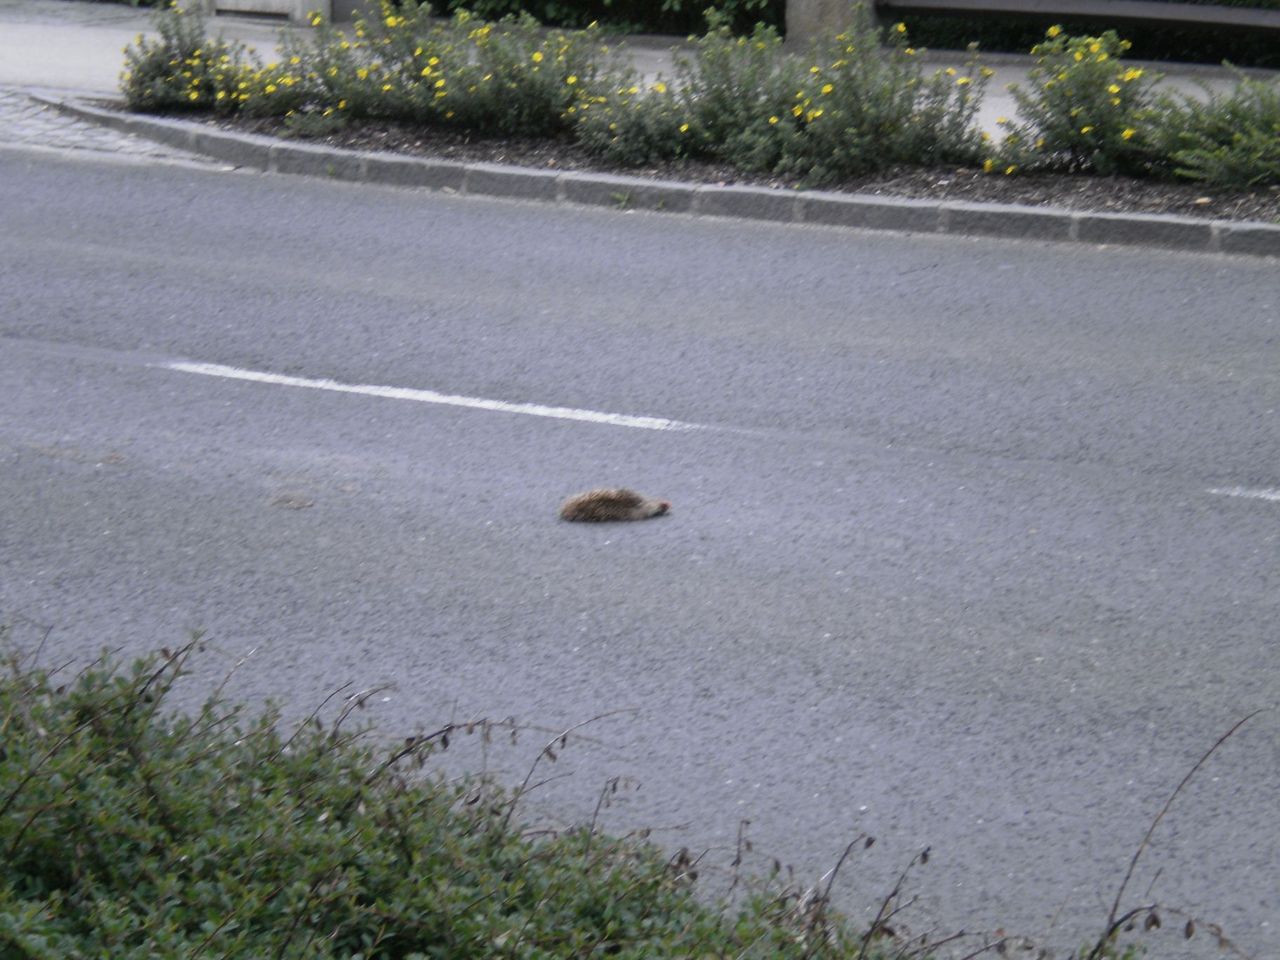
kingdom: Animalia
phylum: Chordata
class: Mammalia
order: Erinaceomorpha
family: Erinaceidae
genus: Erinaceus
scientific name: Erinaceus
